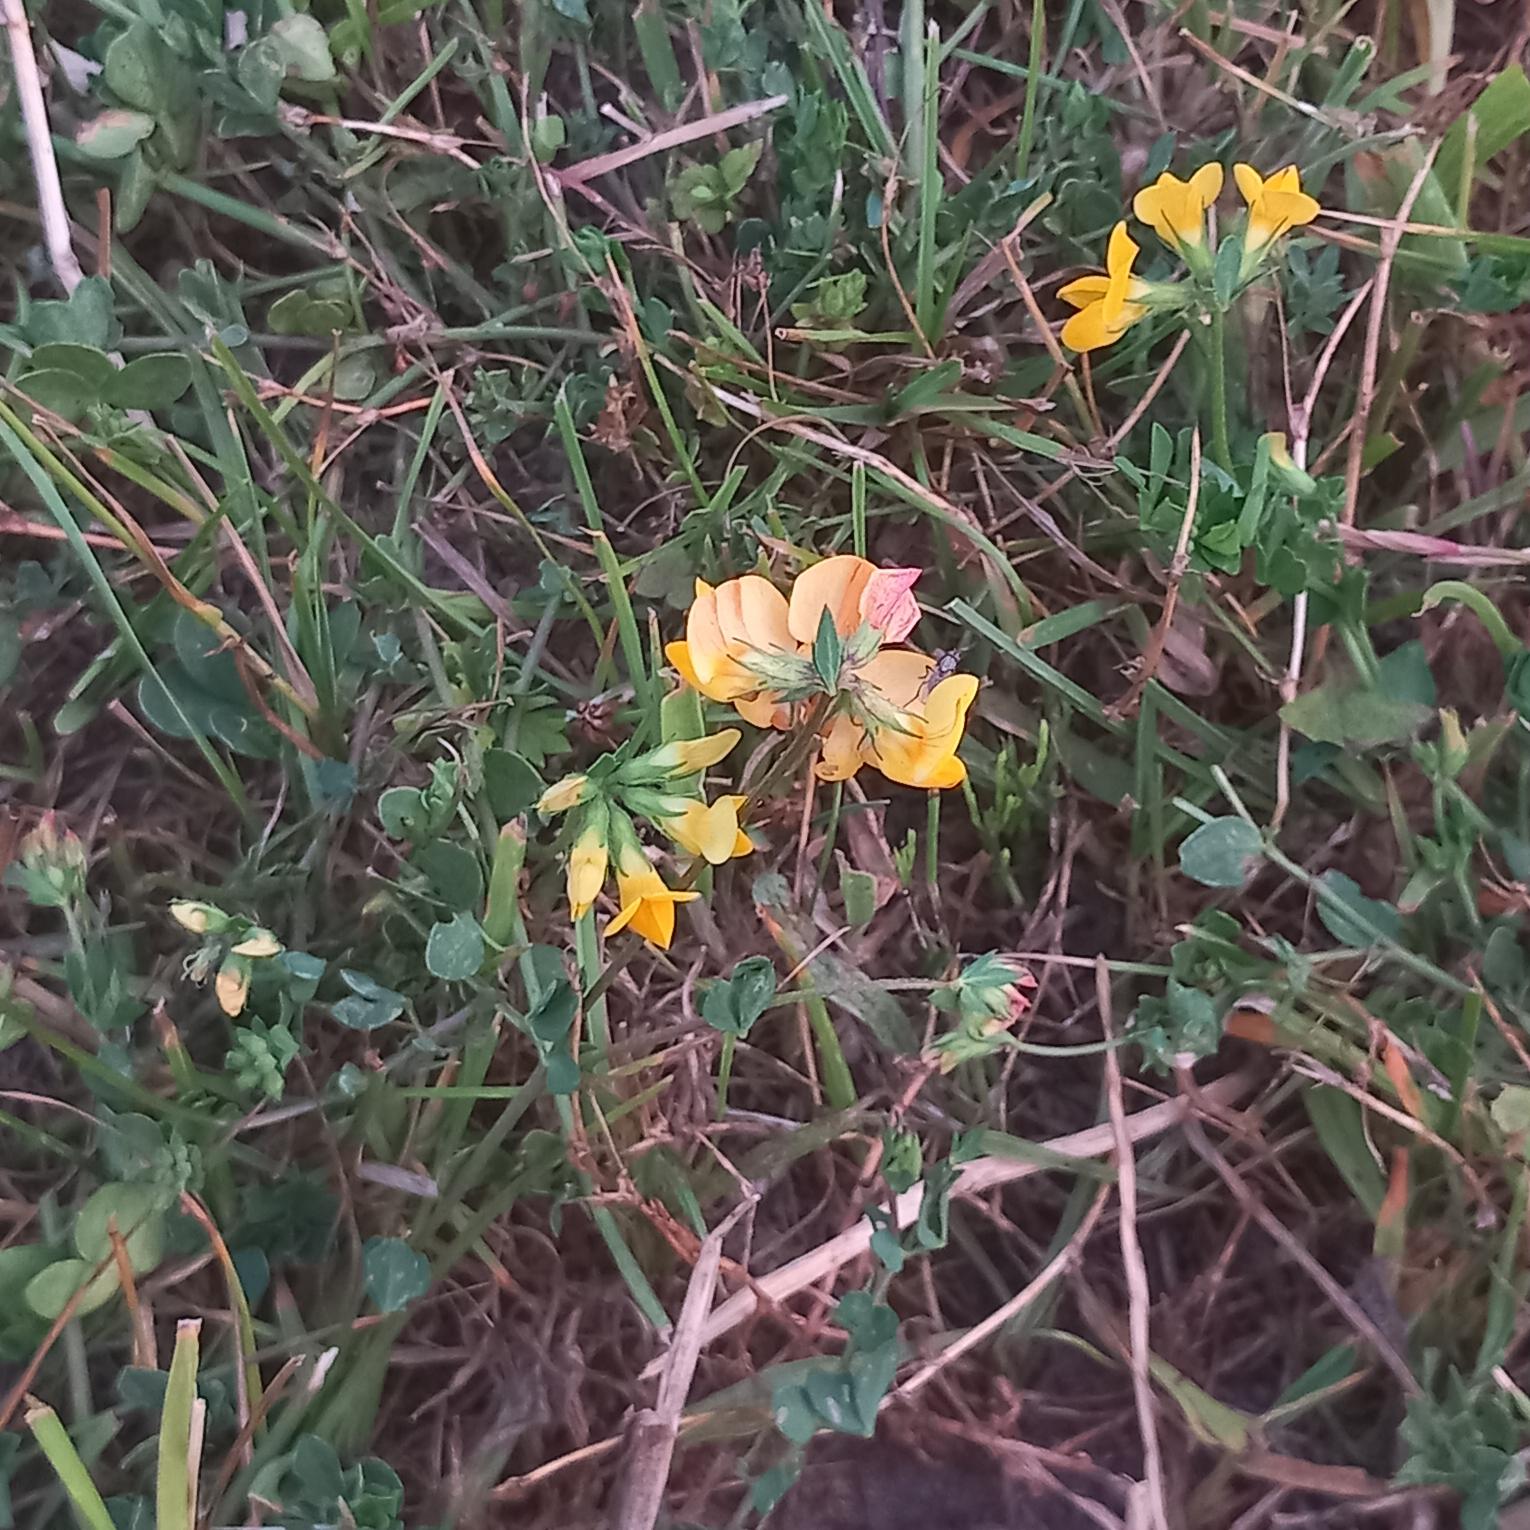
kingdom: Plantae
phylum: Tracheophyta
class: Magnoliopsida
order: Fabales
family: Fabaceae
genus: Lotus
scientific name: Lotus corniculatus
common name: Almindelig kællingetand
